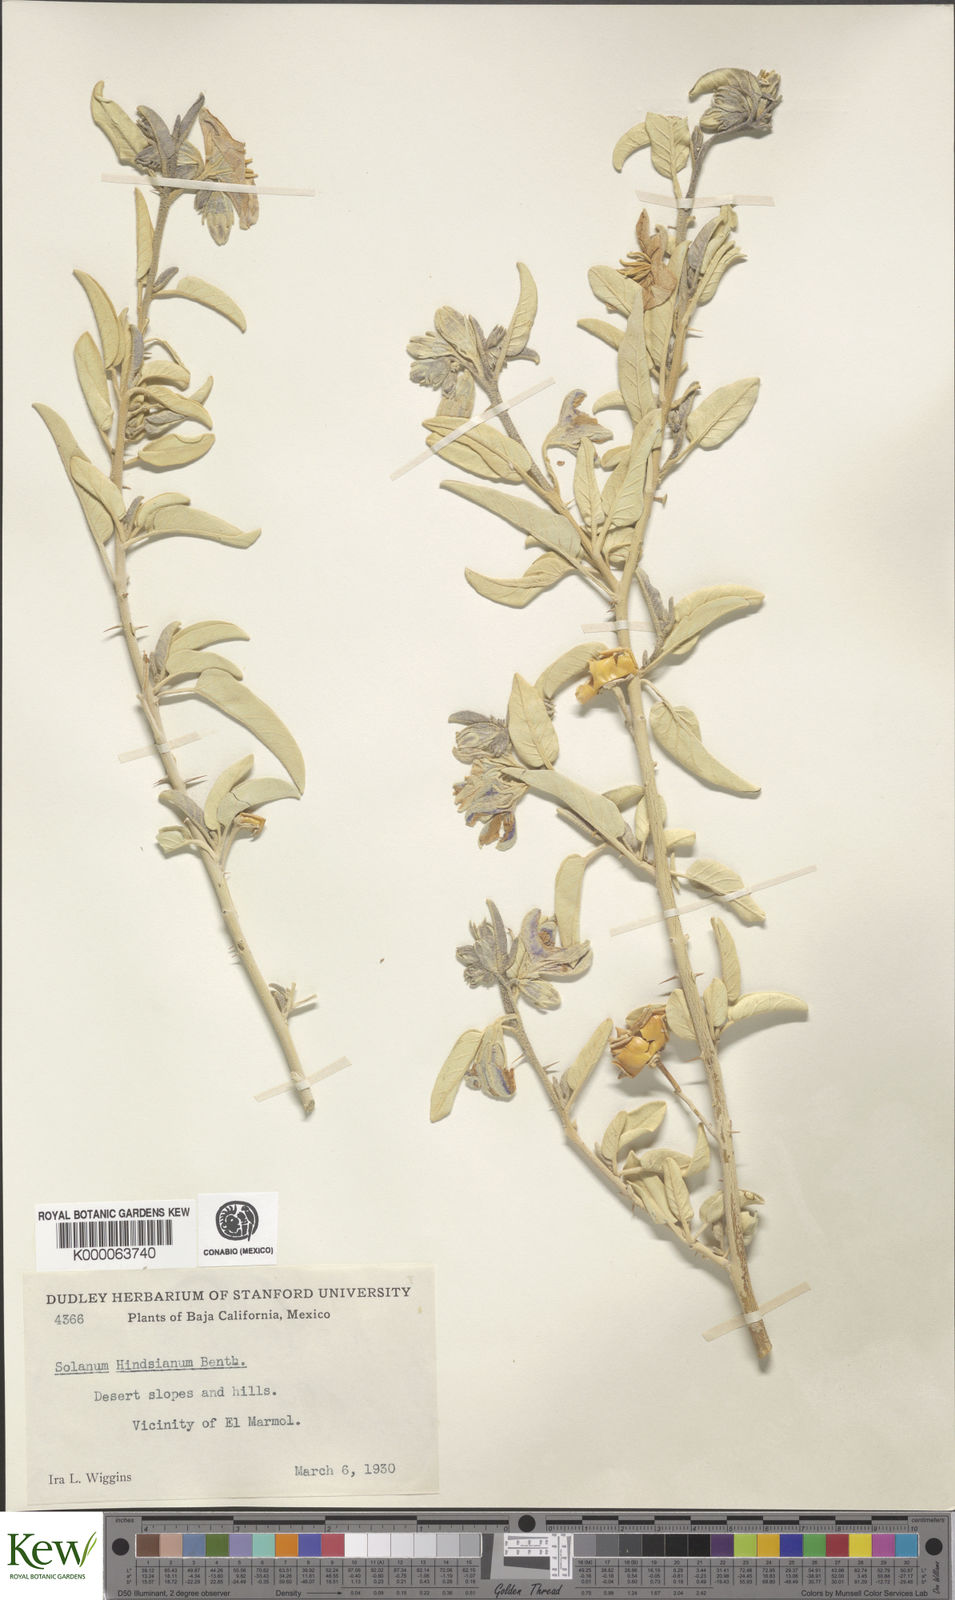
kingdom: Plantae
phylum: Tracheophyta
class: Magnoliopsida
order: Solanales
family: Solanaceae
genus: Solanum
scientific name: Solanum hindsianum
